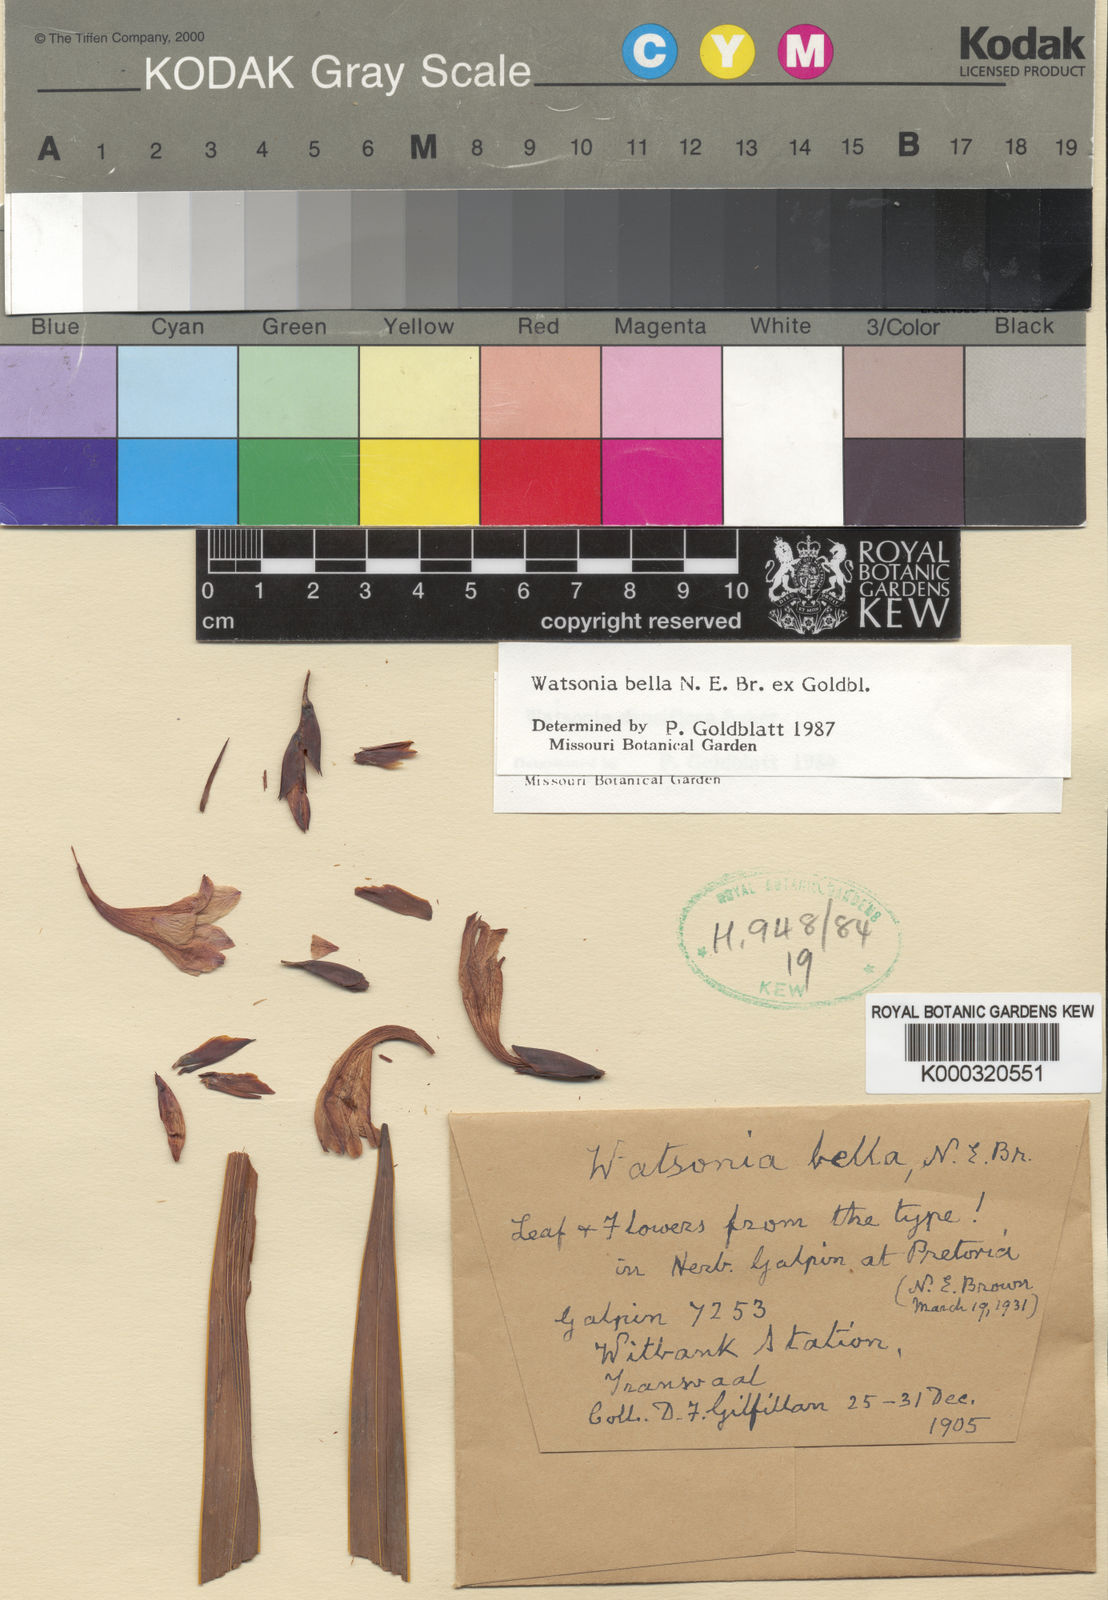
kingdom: Plantae
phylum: Tracheophyta
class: Liliopsida
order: Asparagales
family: Iridaceae
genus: Watsonia
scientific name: Watsonia bella
